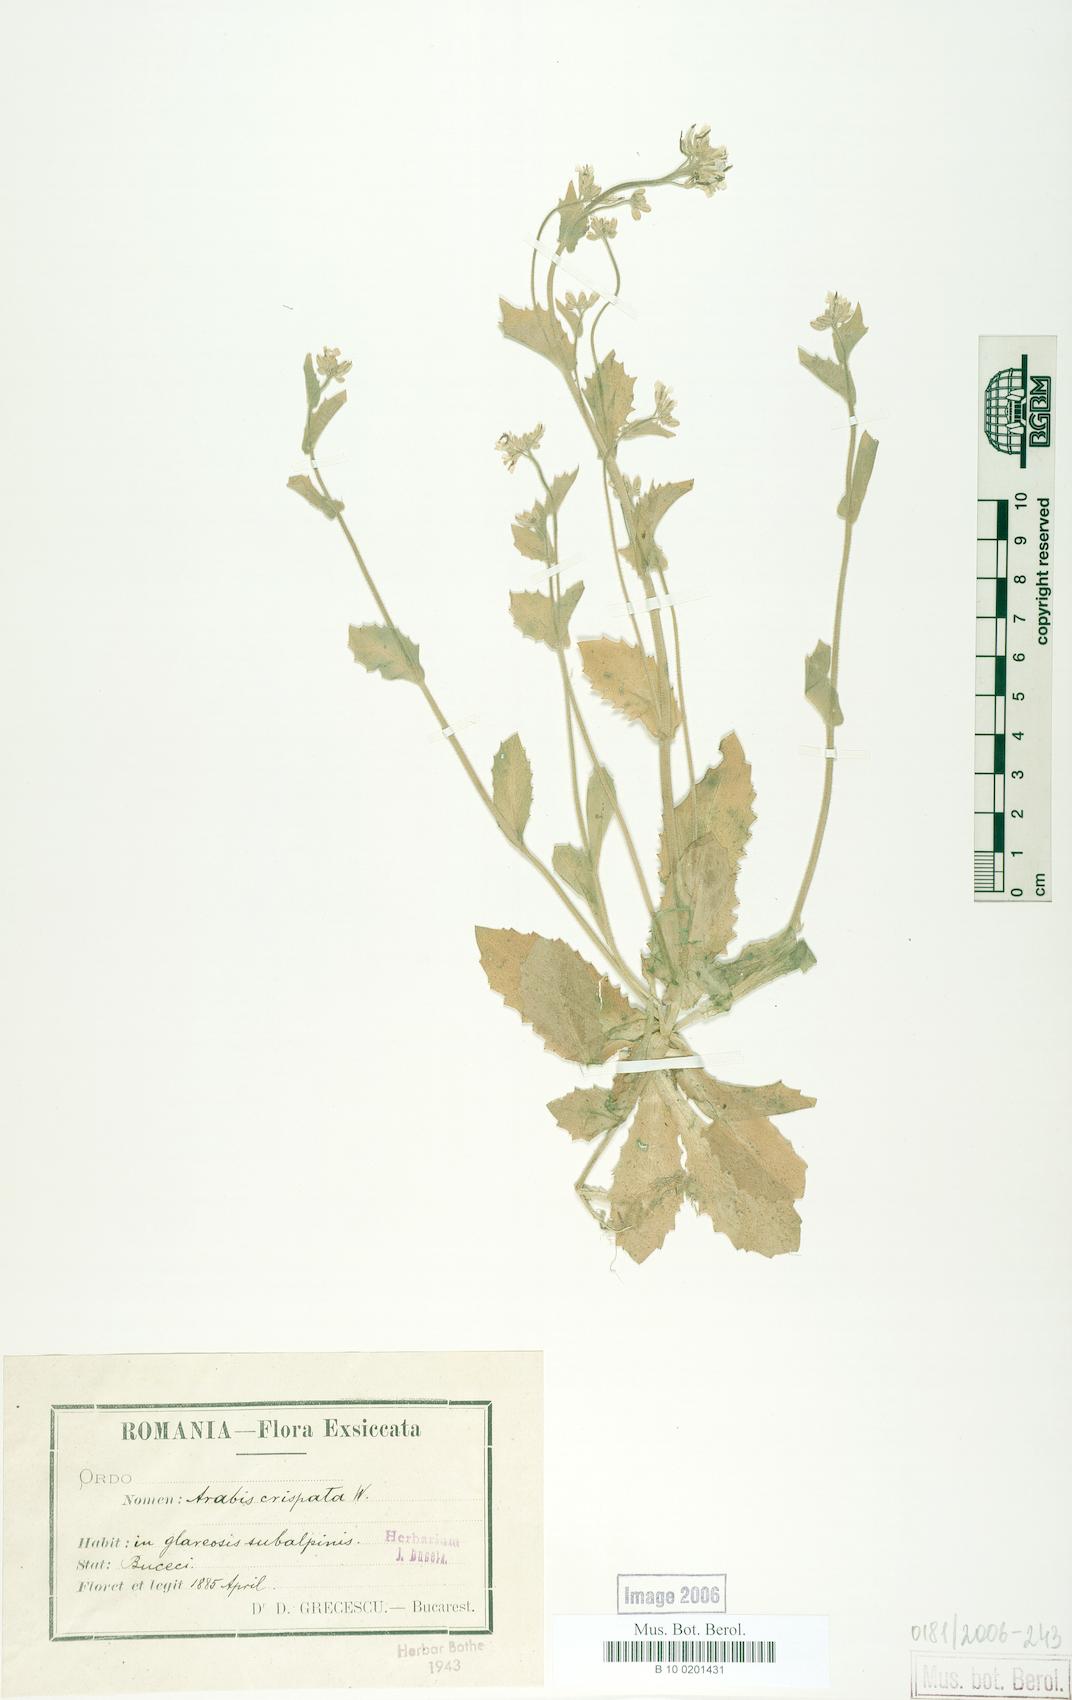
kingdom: Plantae
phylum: Tracheophyta
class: Magnoliopsida
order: Brassicales
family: Brassicaceae
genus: Arabis
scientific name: Arabis alpina
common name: Alpine rock-cress
